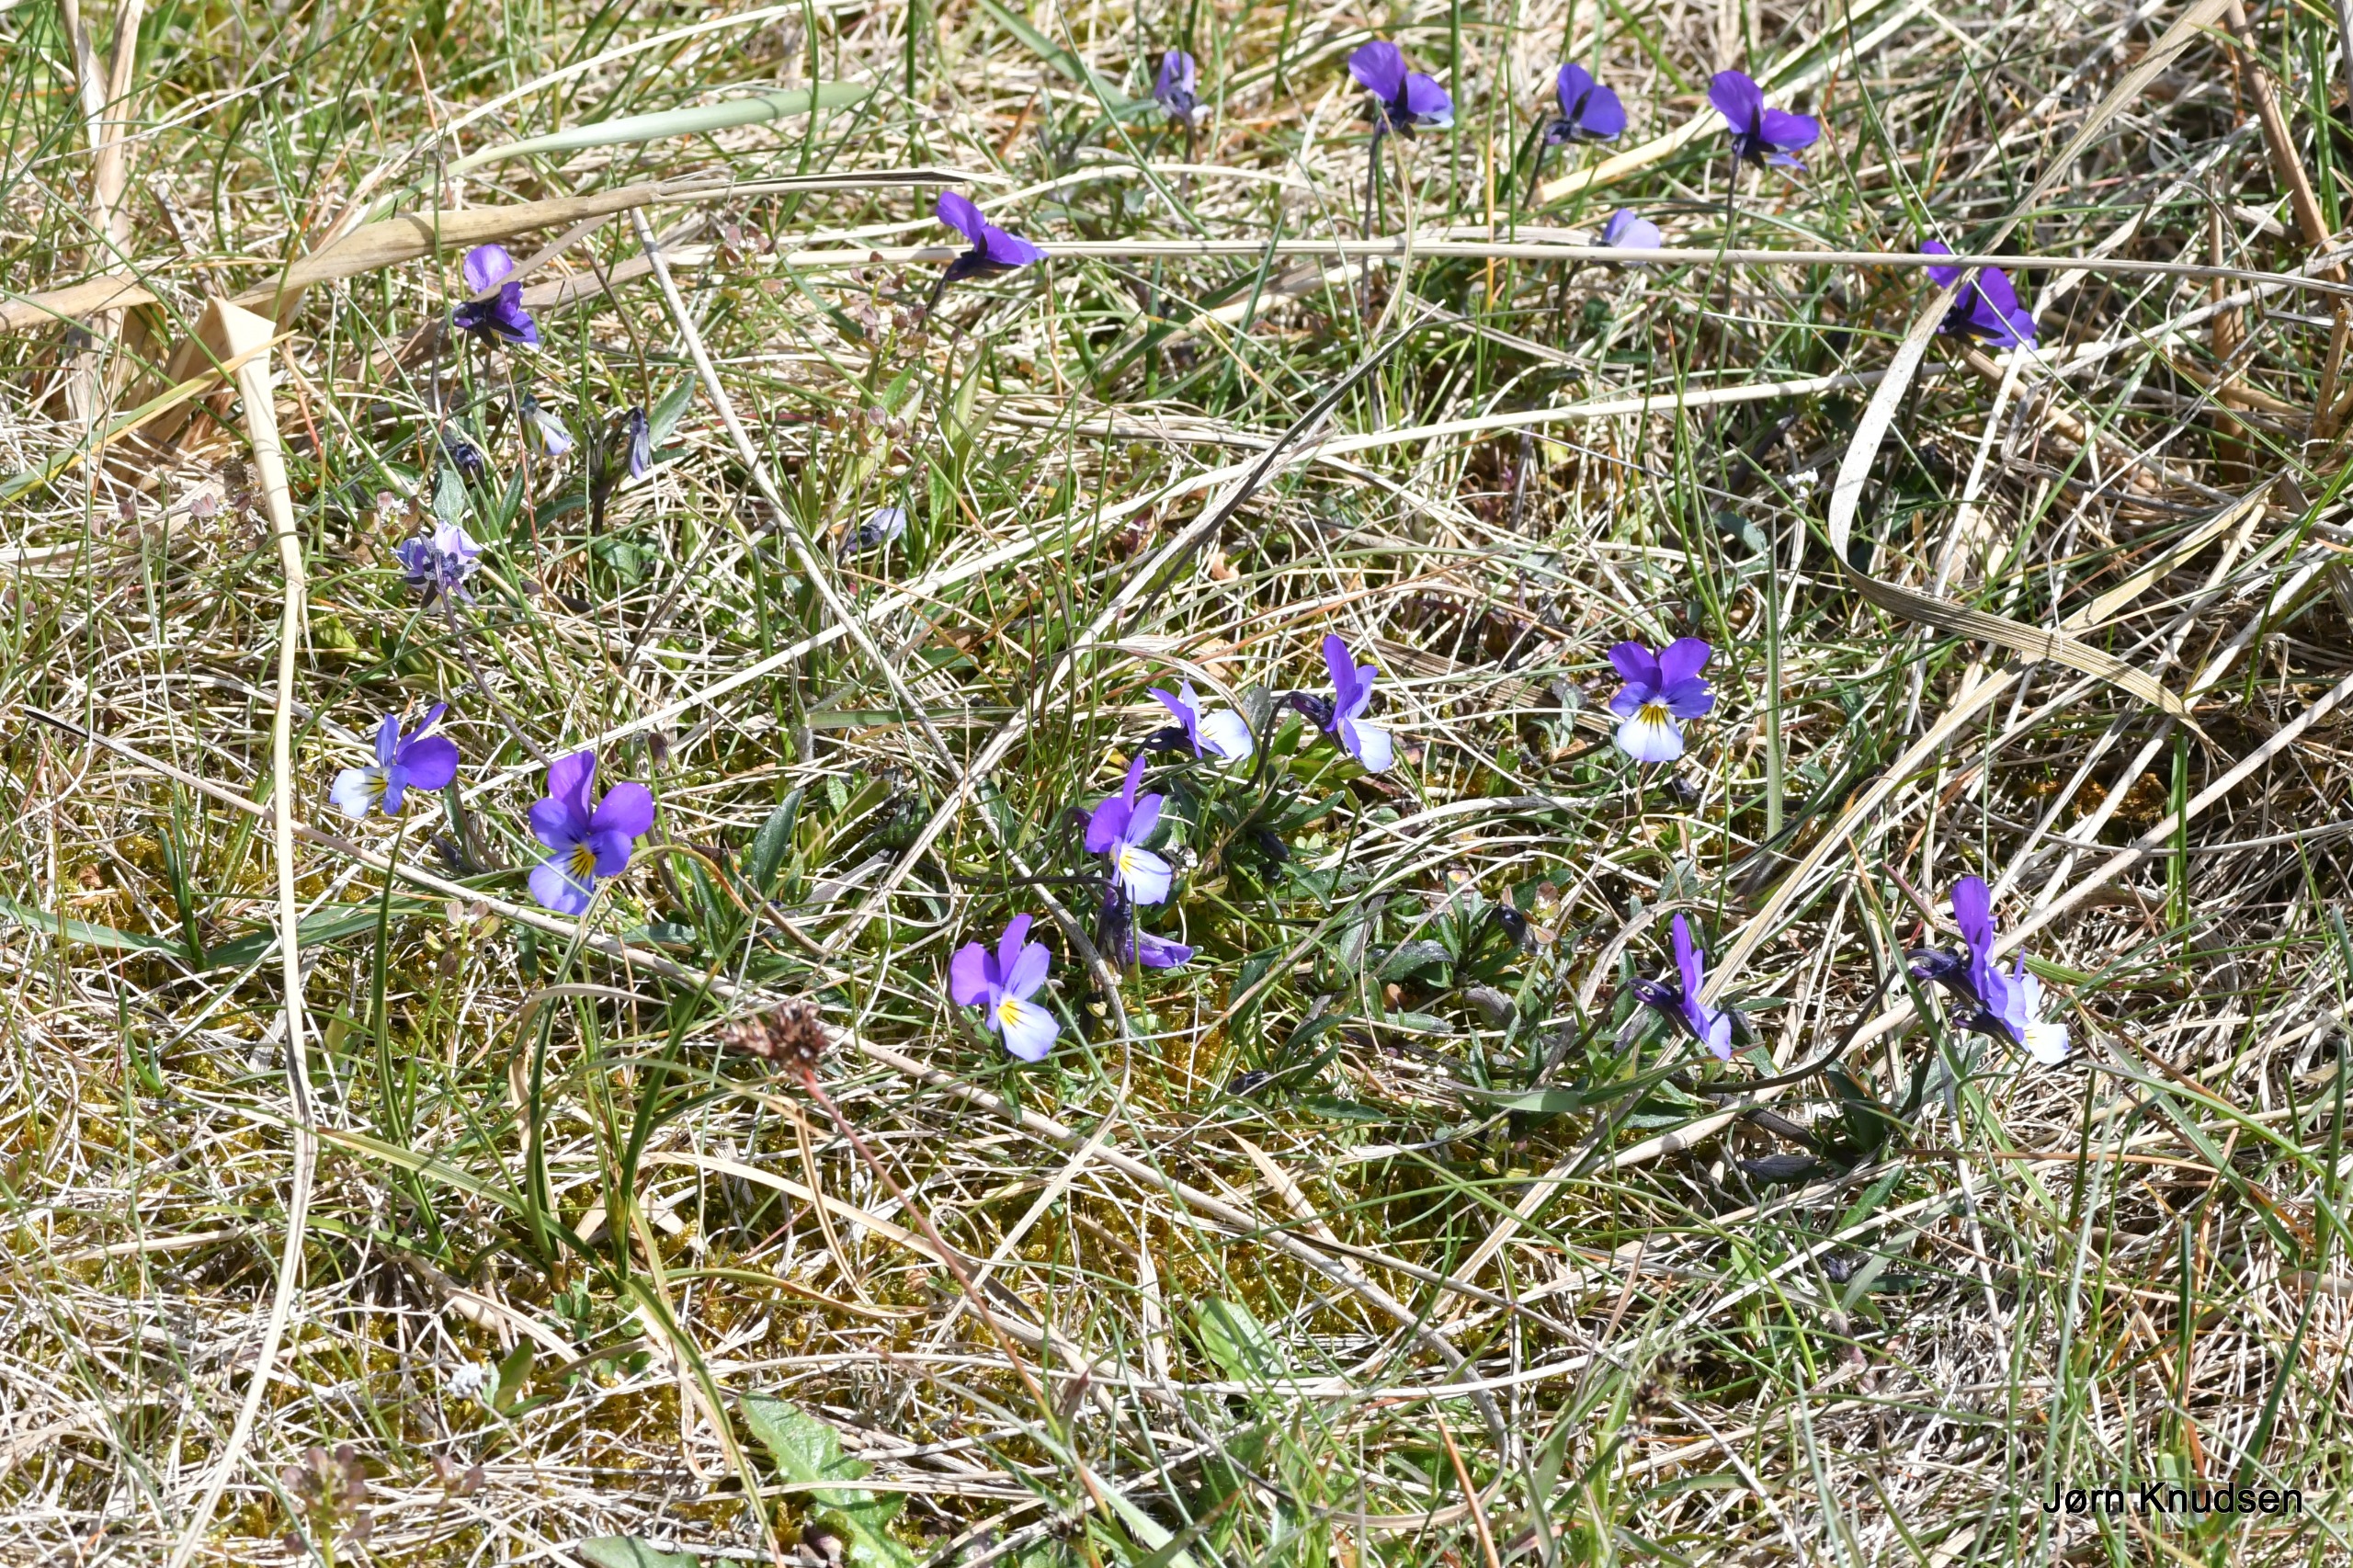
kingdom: Plantae
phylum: Tracheophyta
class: Magnoliopsida
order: Malpighiales
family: Violaceae
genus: Viola
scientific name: Viola tricolor
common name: Stedmoderblomst
